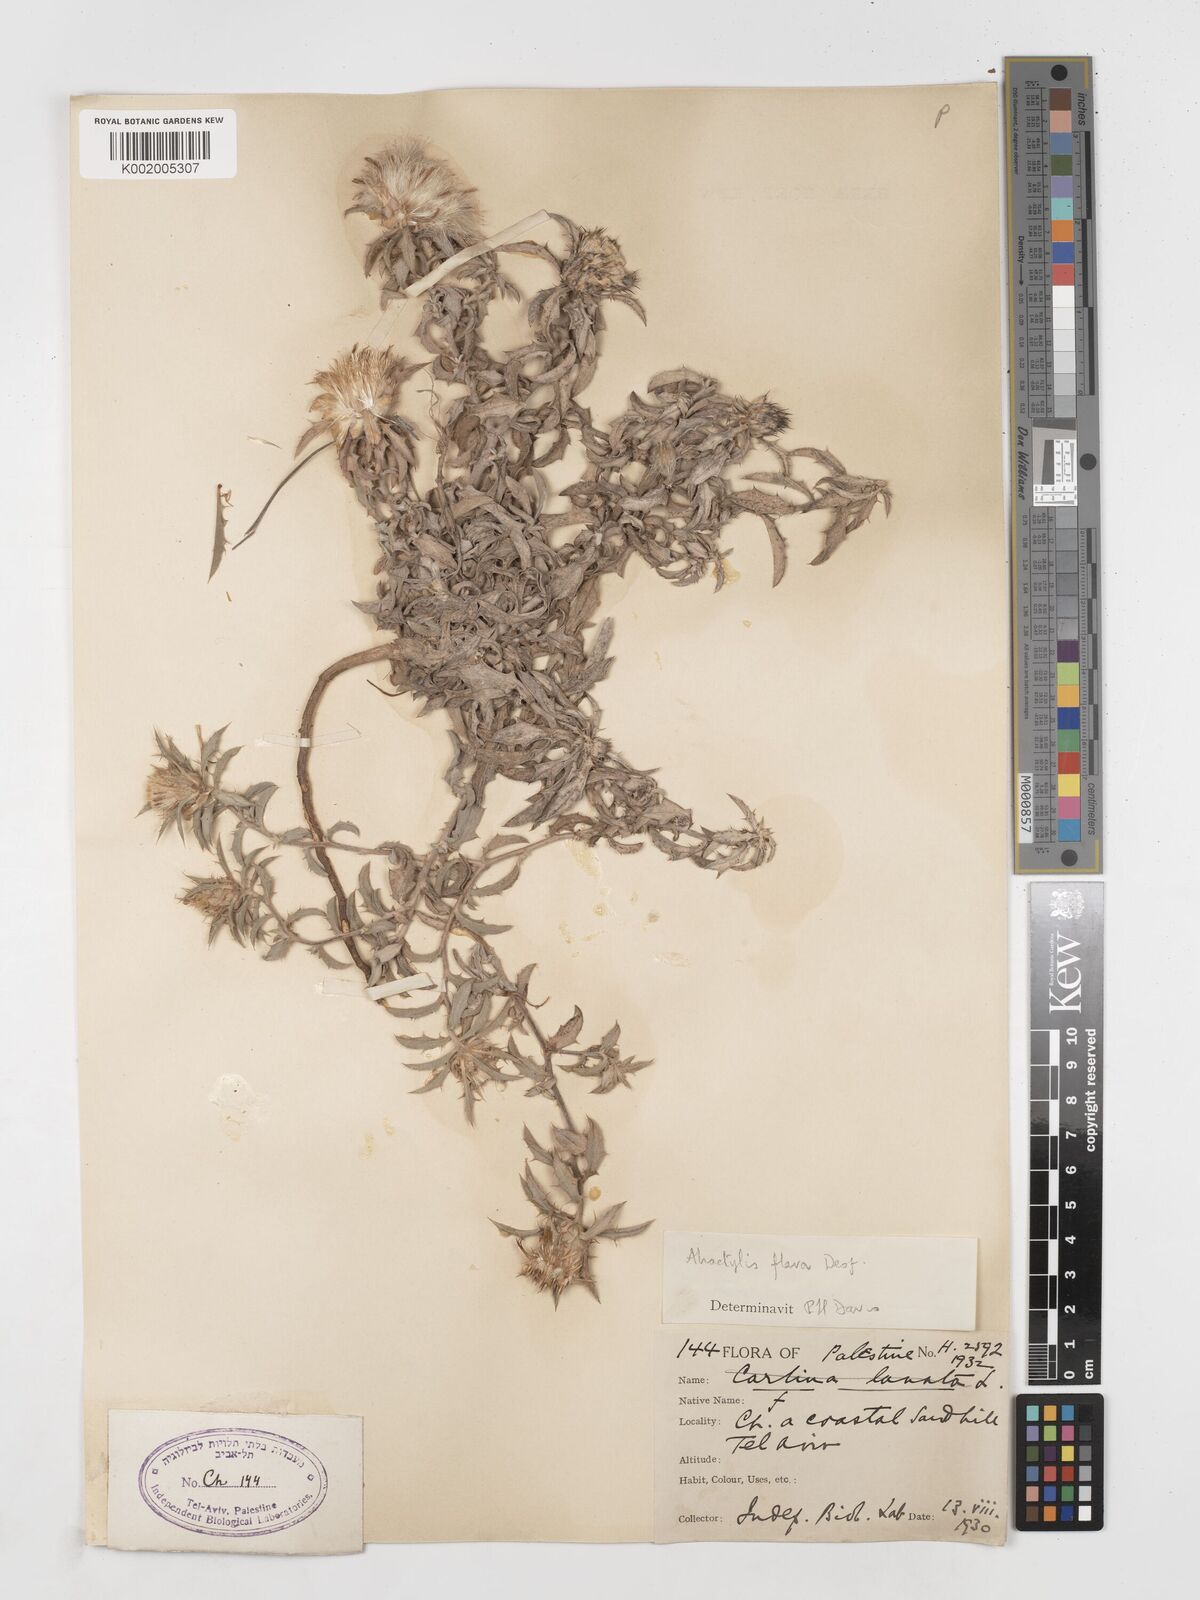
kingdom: Plantae
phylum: Tracheophyta
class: Magnoliopsida
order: Asterales
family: Asteraceae
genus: Atractylis
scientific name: Atractylis carduus
